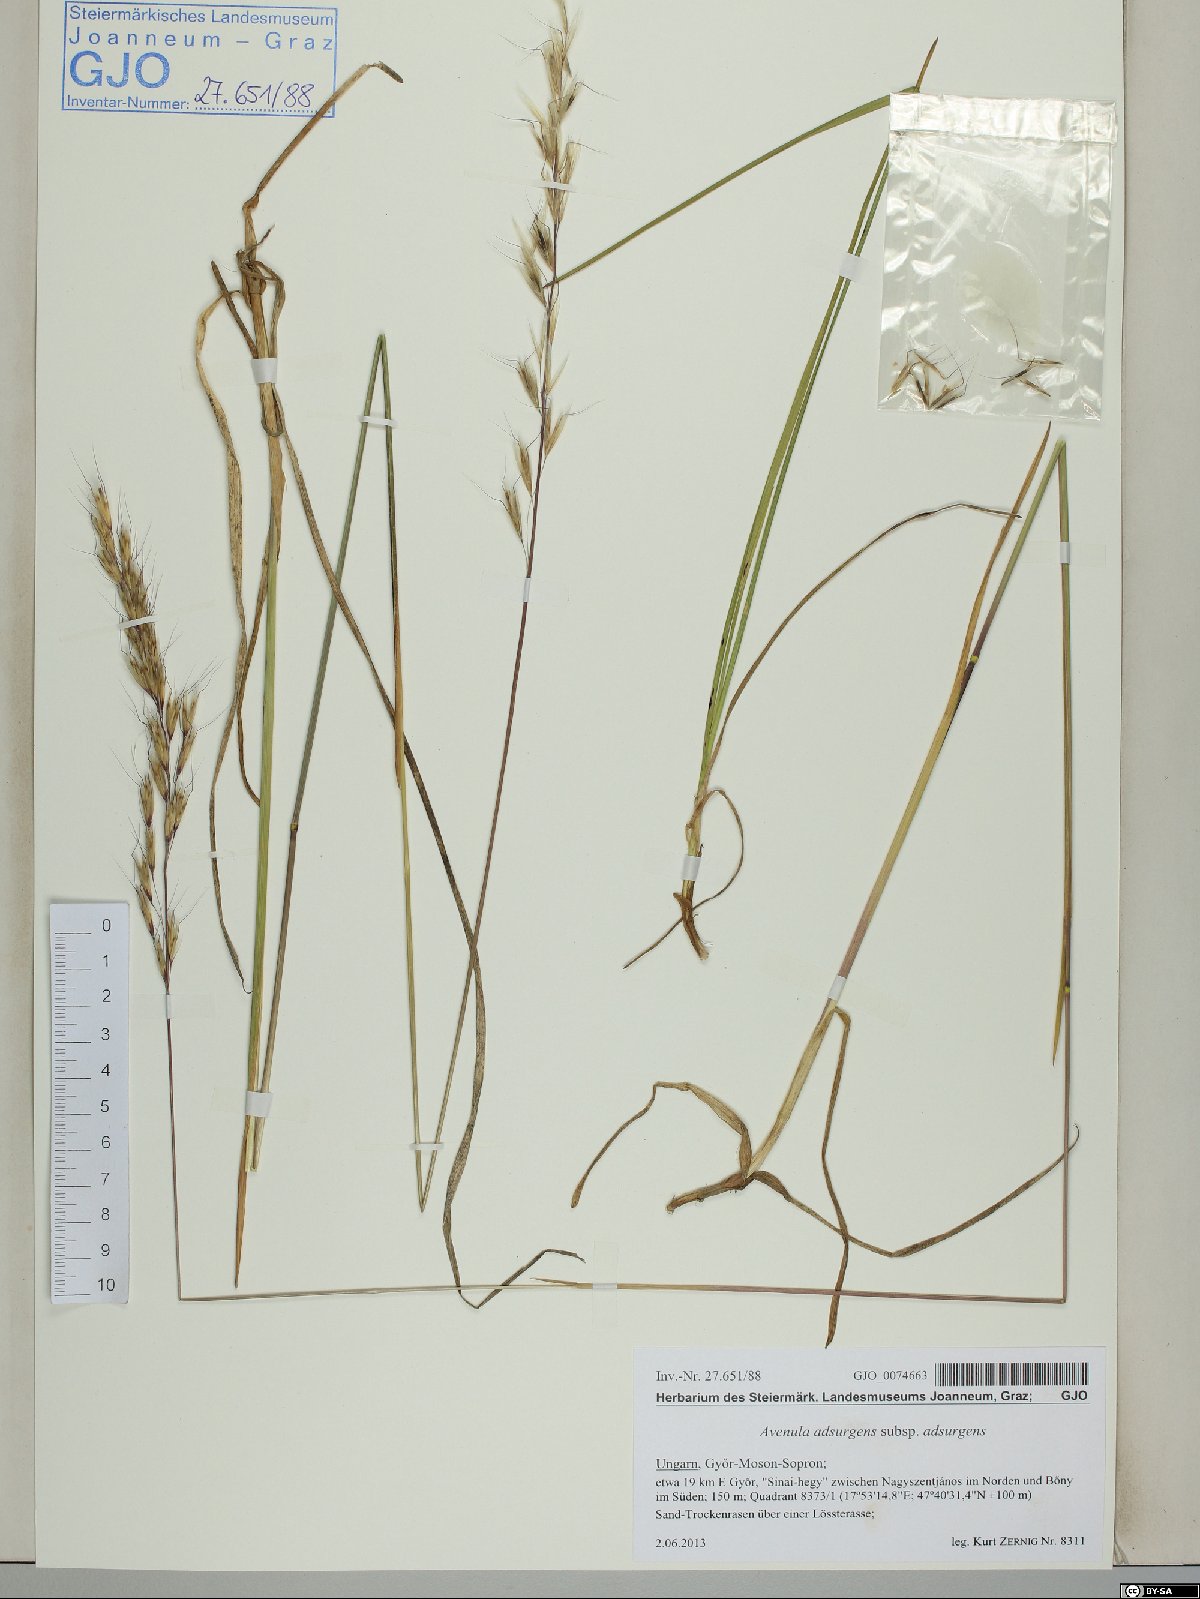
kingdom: Plantae
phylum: Tracheophyta
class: Liliopsida
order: Poales
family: Poaceae
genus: Helictochloa
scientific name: Helictochloa praeusta
